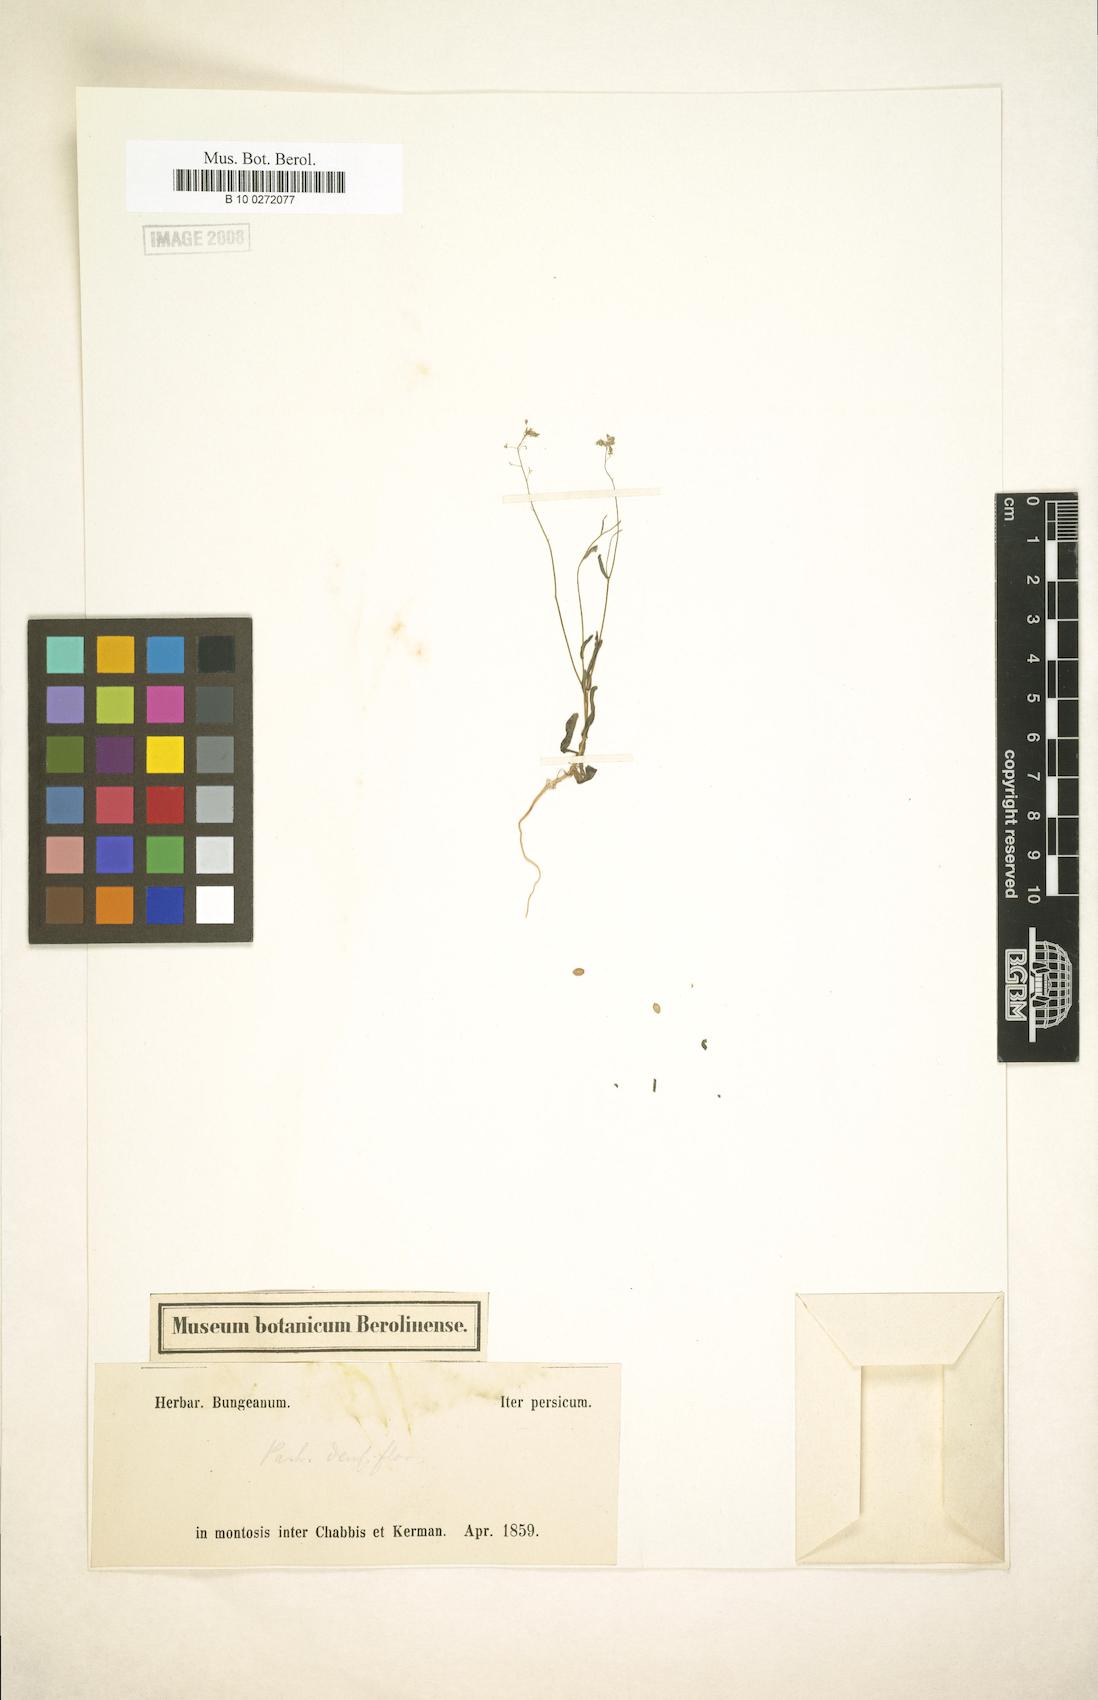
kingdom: Plantae
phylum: Tracheophyta
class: Magnoliopsida
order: Brassicales
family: Brassicaceae
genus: Isatis
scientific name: Isatis multicaulis
